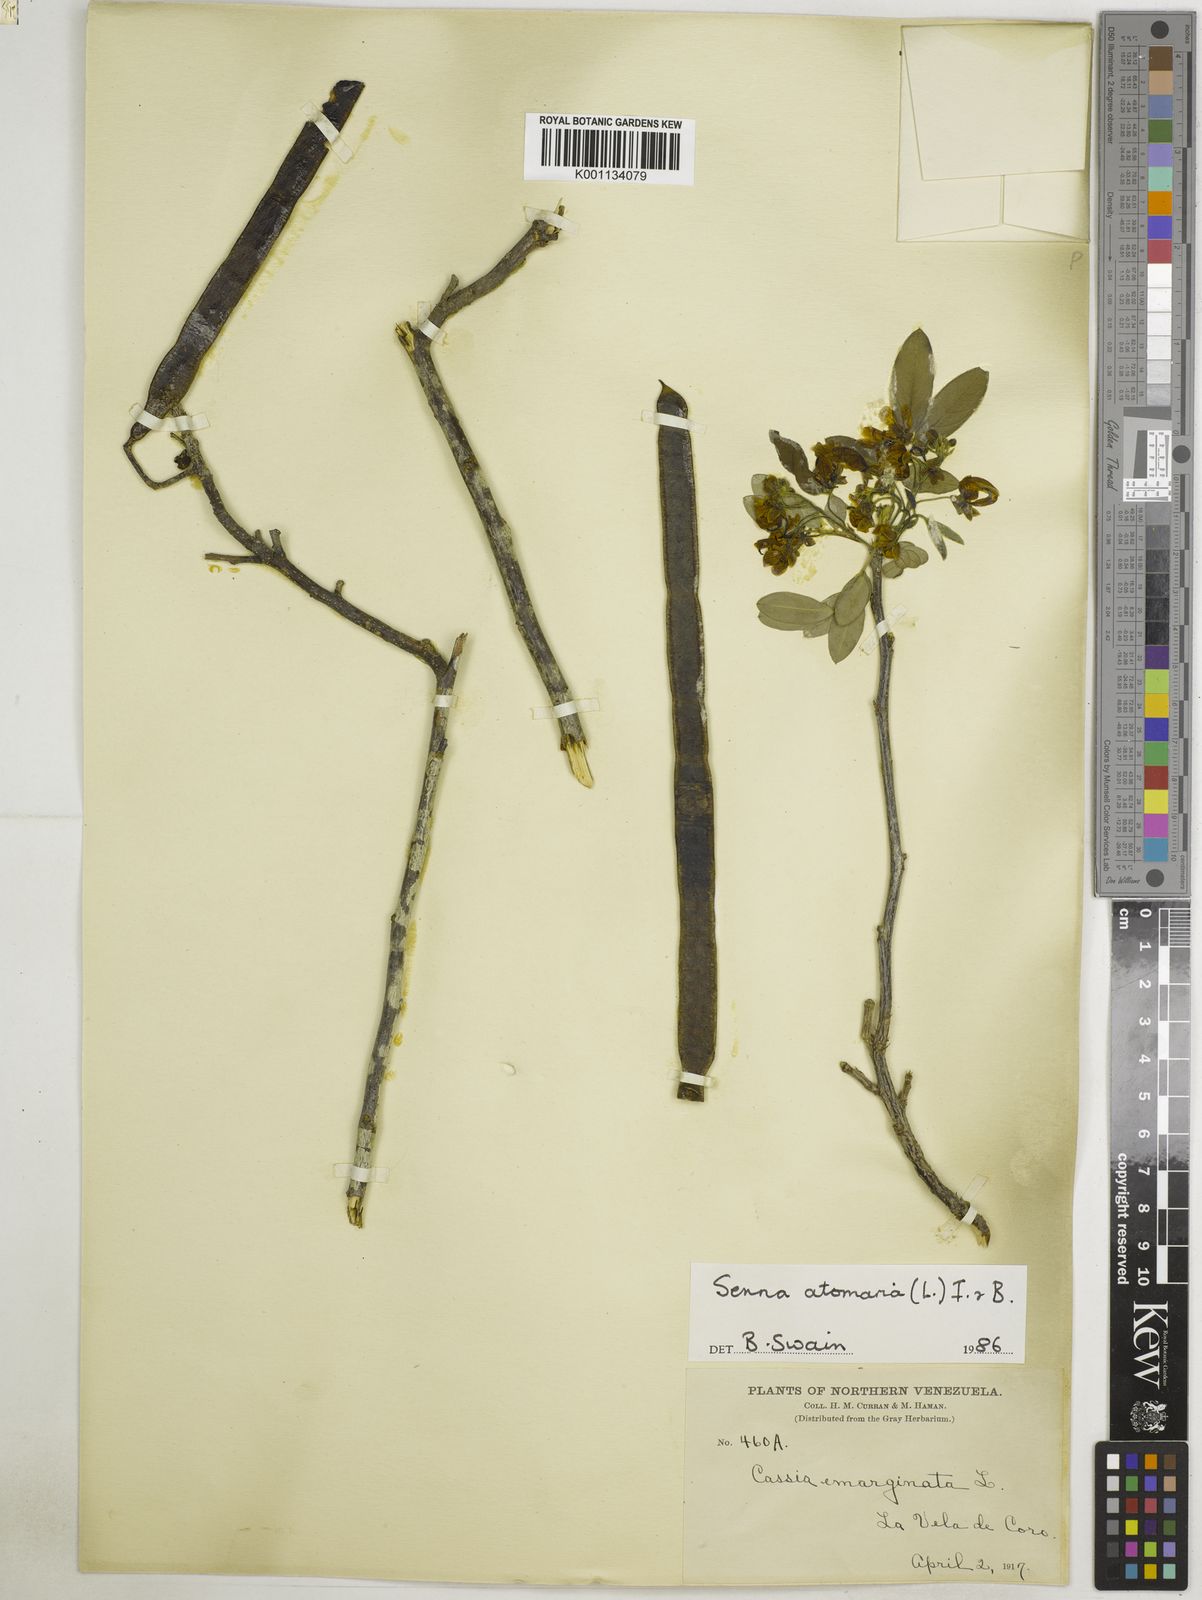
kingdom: Plantae
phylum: Tracheophyta
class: Magnoliopsida
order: Fabales
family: Fabaceae
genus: Senna
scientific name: Senna atomaria
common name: Flor de san jose
